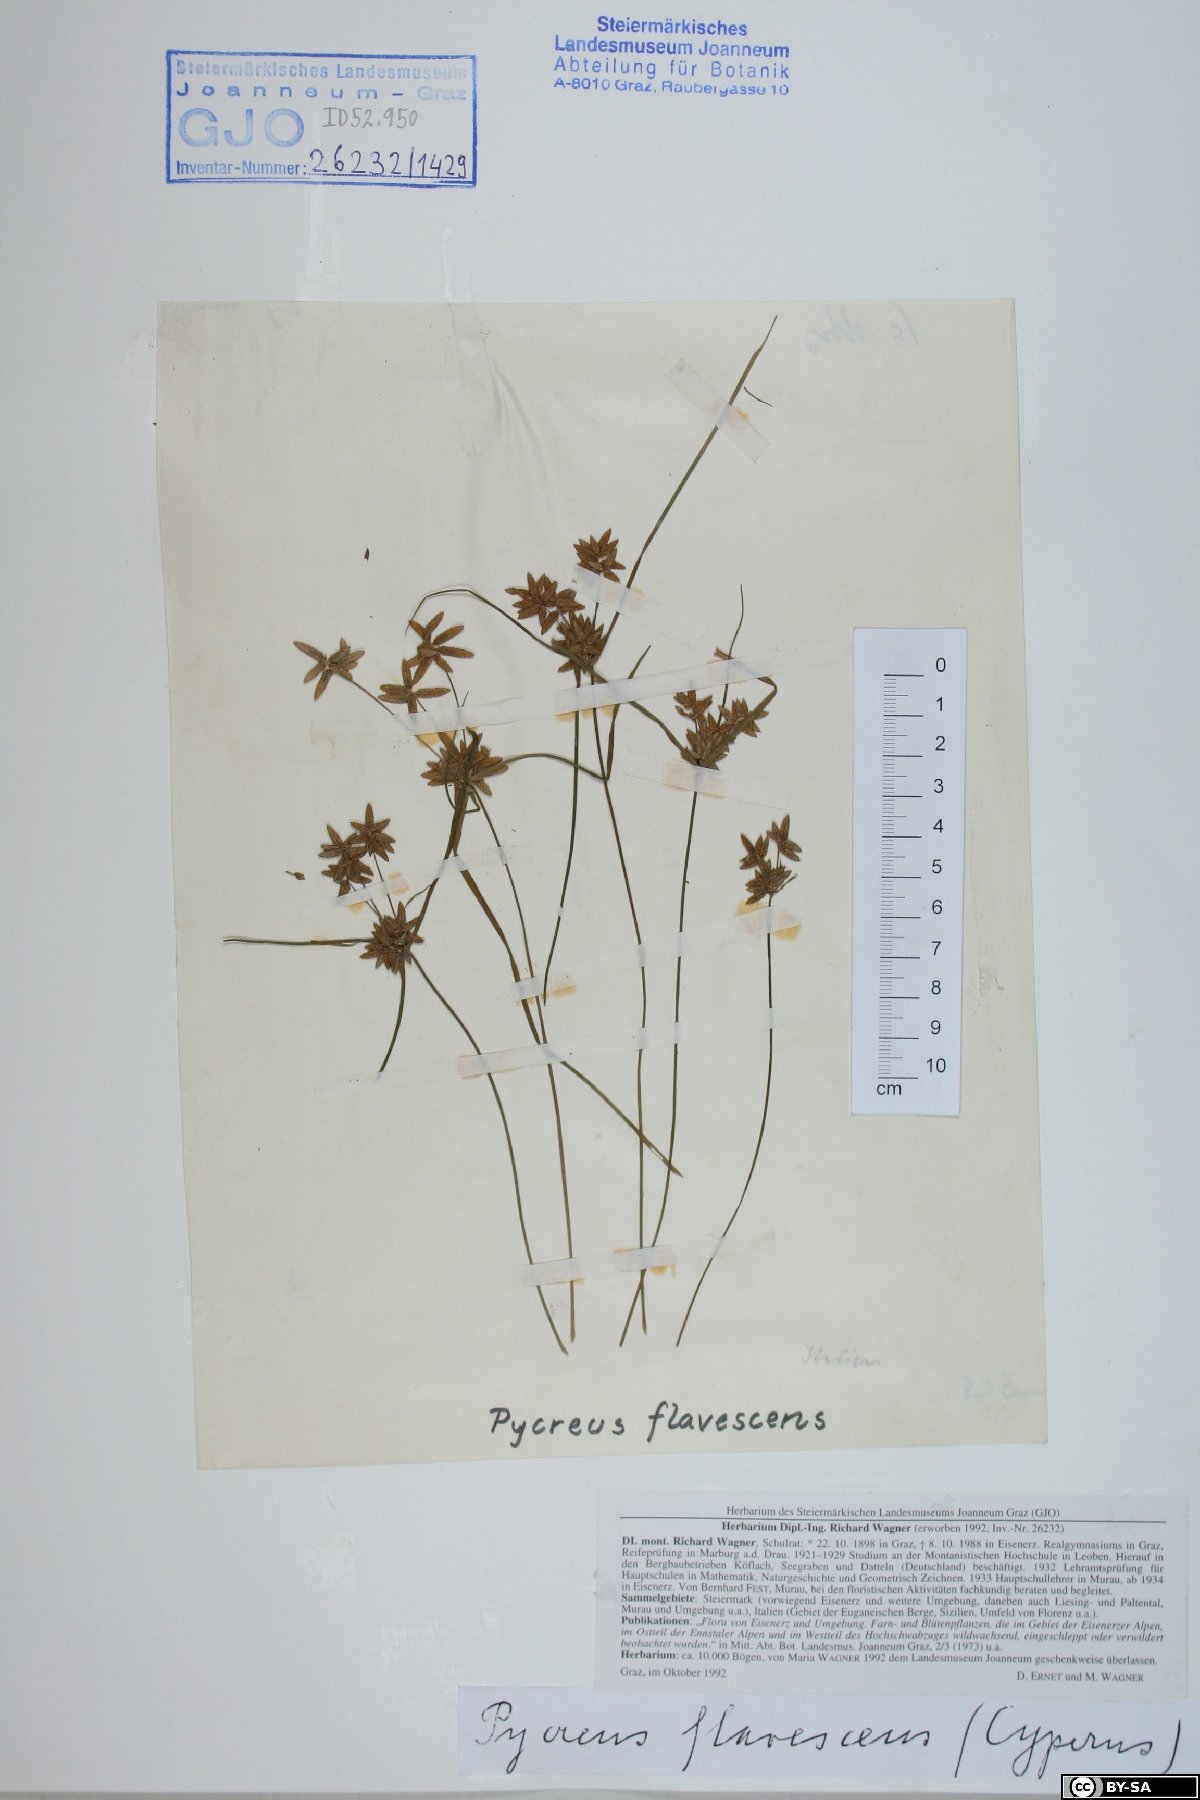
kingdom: Plantae
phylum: Tracheophyta
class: Liliopsida
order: Poales
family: Cyperaceae
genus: Cyperus
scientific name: Cyperus flavescens
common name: Yellow galingale
